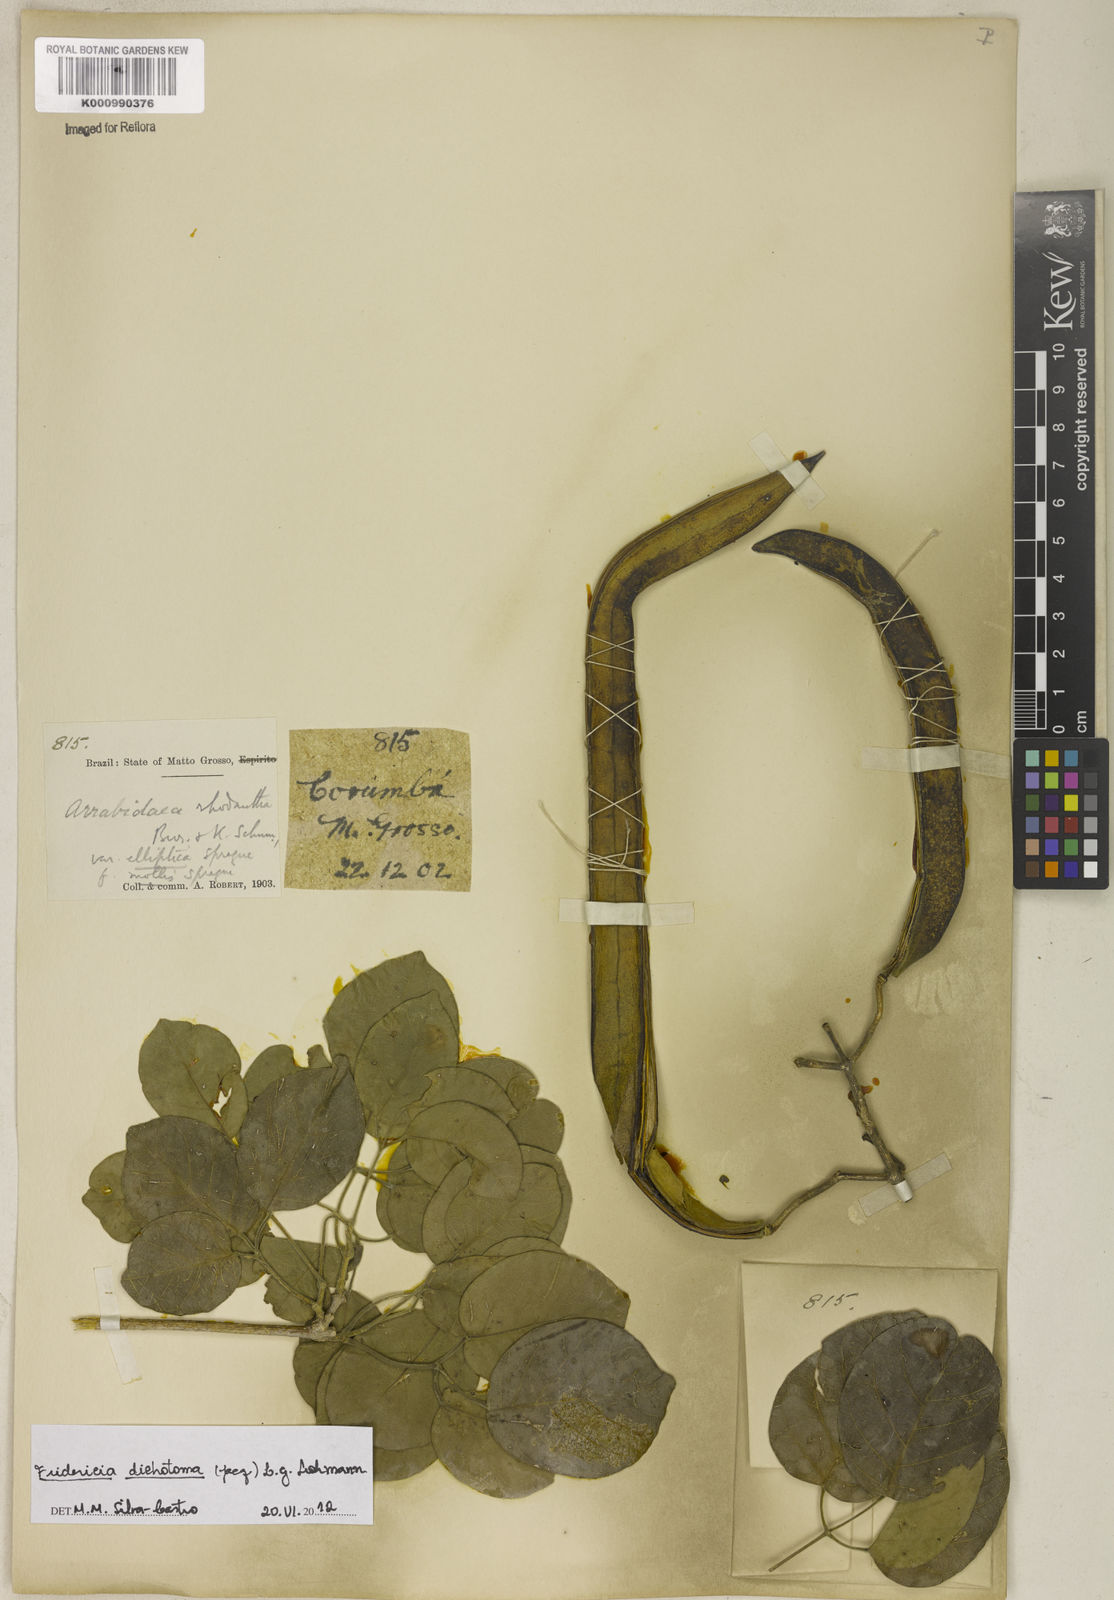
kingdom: Plantae
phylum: Tracheophyta
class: Magnoliopsida
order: Lamiales
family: Bignoniaceae
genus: Tanaecium
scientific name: Tanaecium dichotomum
